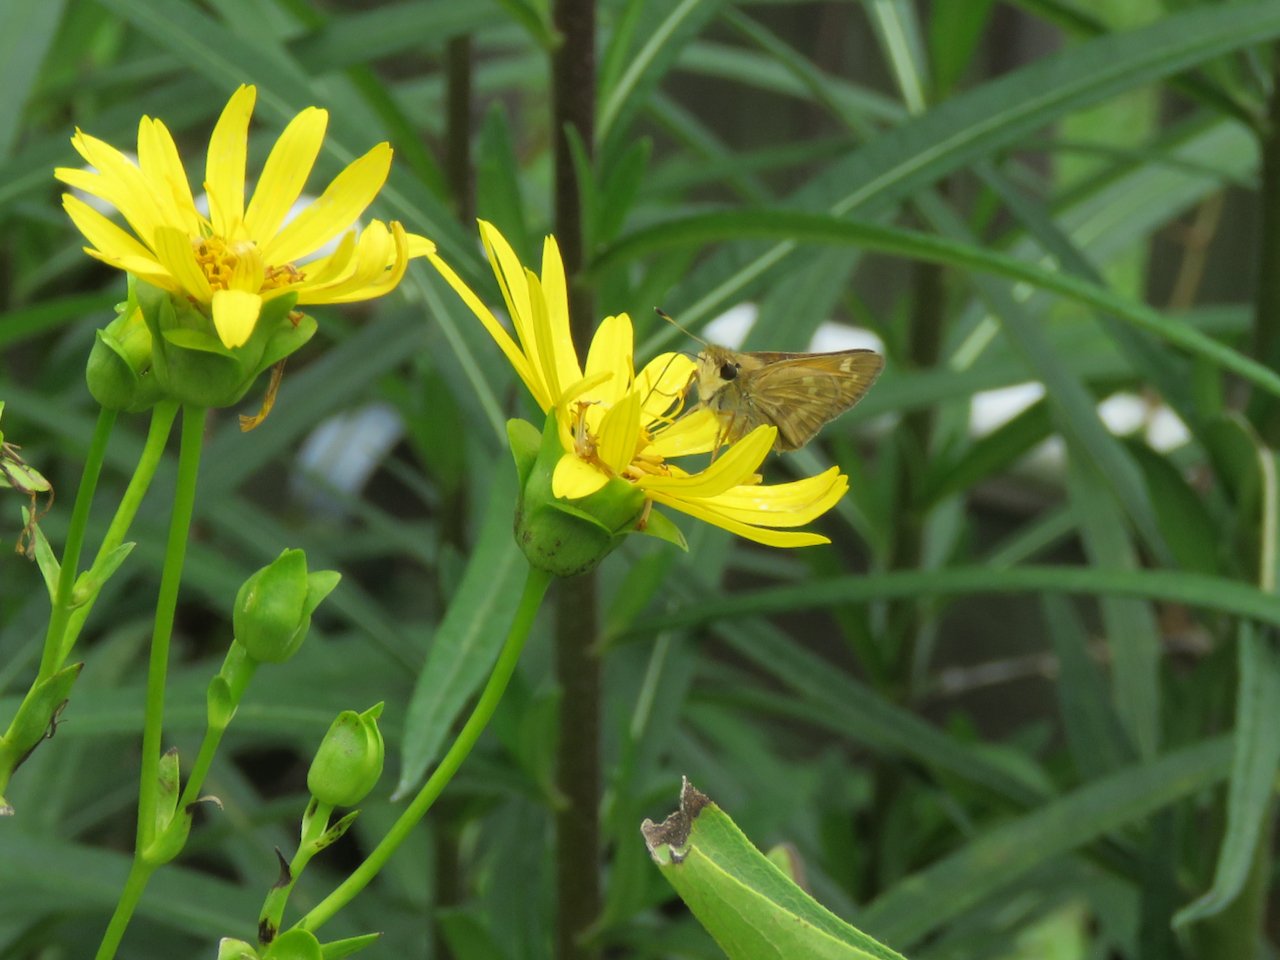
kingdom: Animalia
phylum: Arthropoda
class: Insecta
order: Lepidoptera
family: Hesperiidae
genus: Atalopedes
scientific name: Atalopedes campestris
